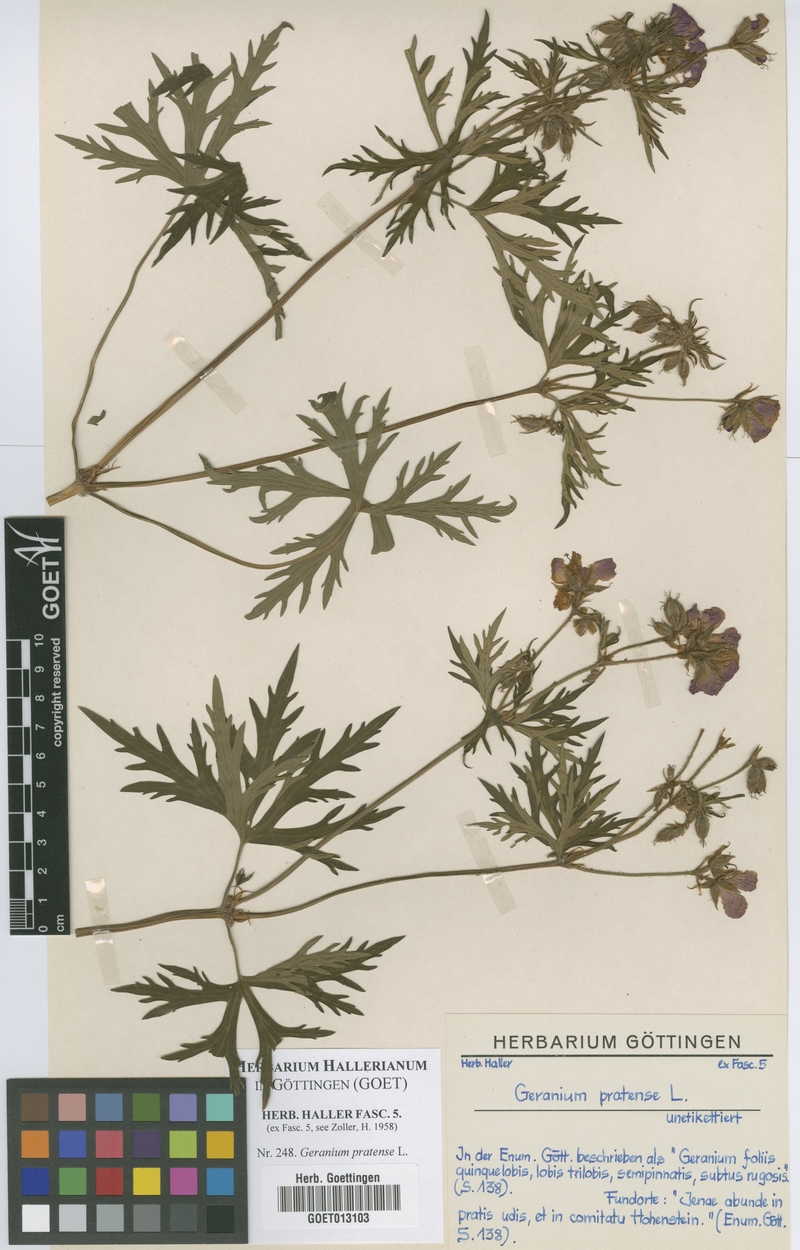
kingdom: Plantae
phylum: Tracheophyta
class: Magnoliopsida
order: Geraniales
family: Geraniaceae
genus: Geranium
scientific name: Geranium pratense
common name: Meadow crane's-bill
